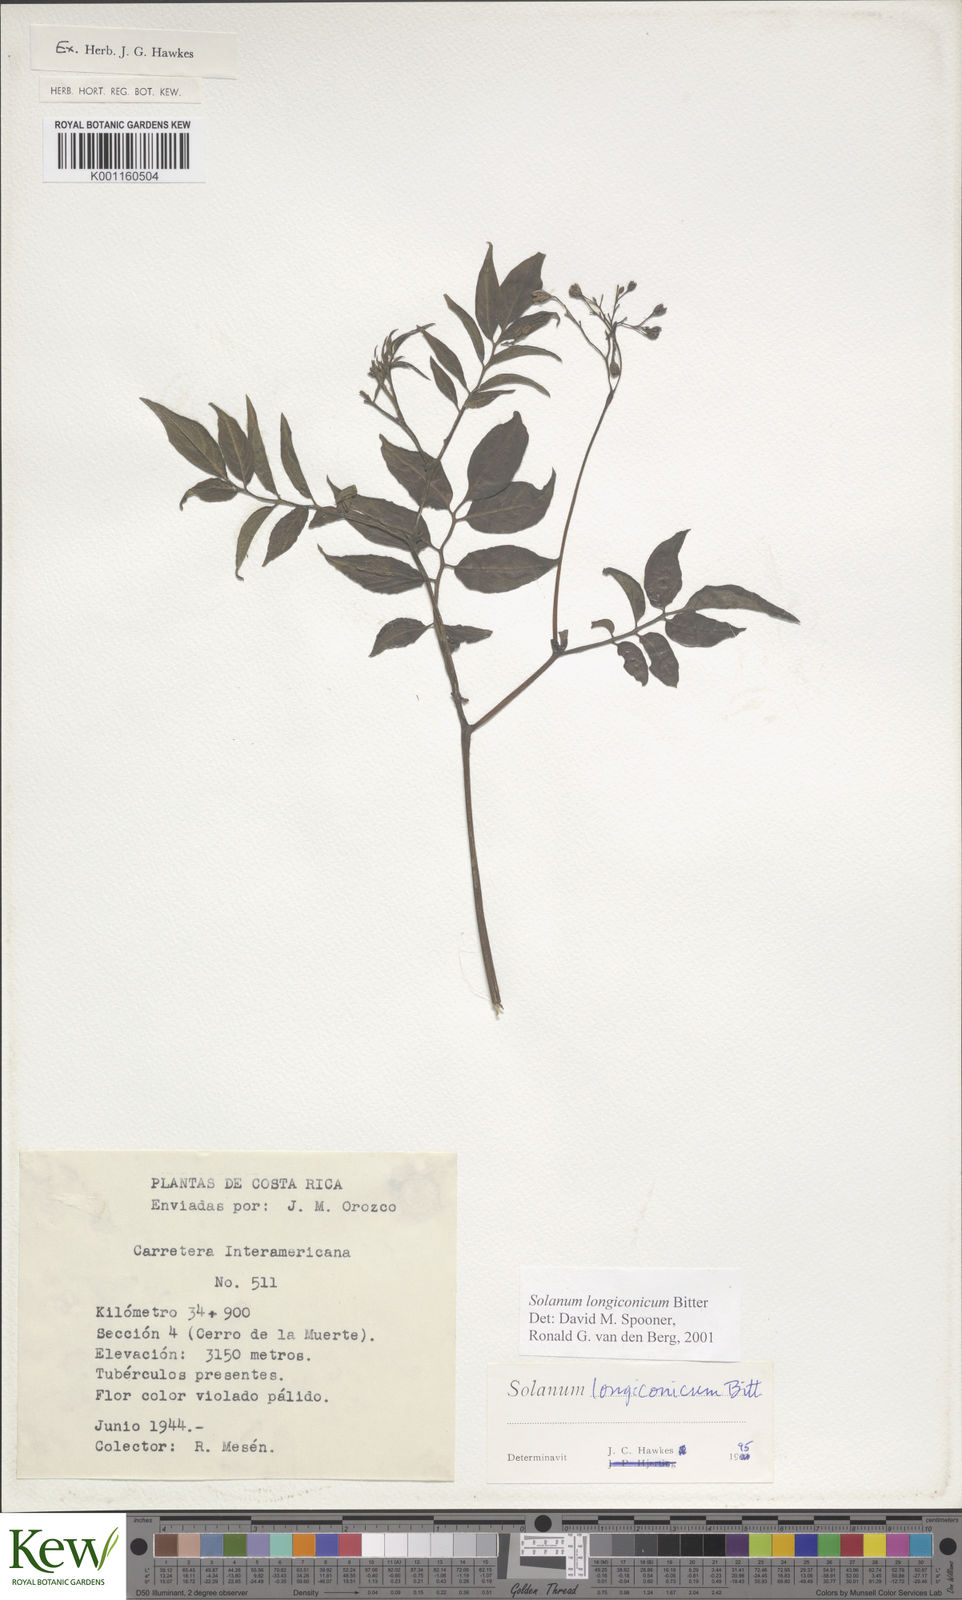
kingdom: Plantae
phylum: Tracheophyta
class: Magnoliopsida
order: Solanales
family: Solanaceae
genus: Solanum
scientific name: Solanum longiconicum
